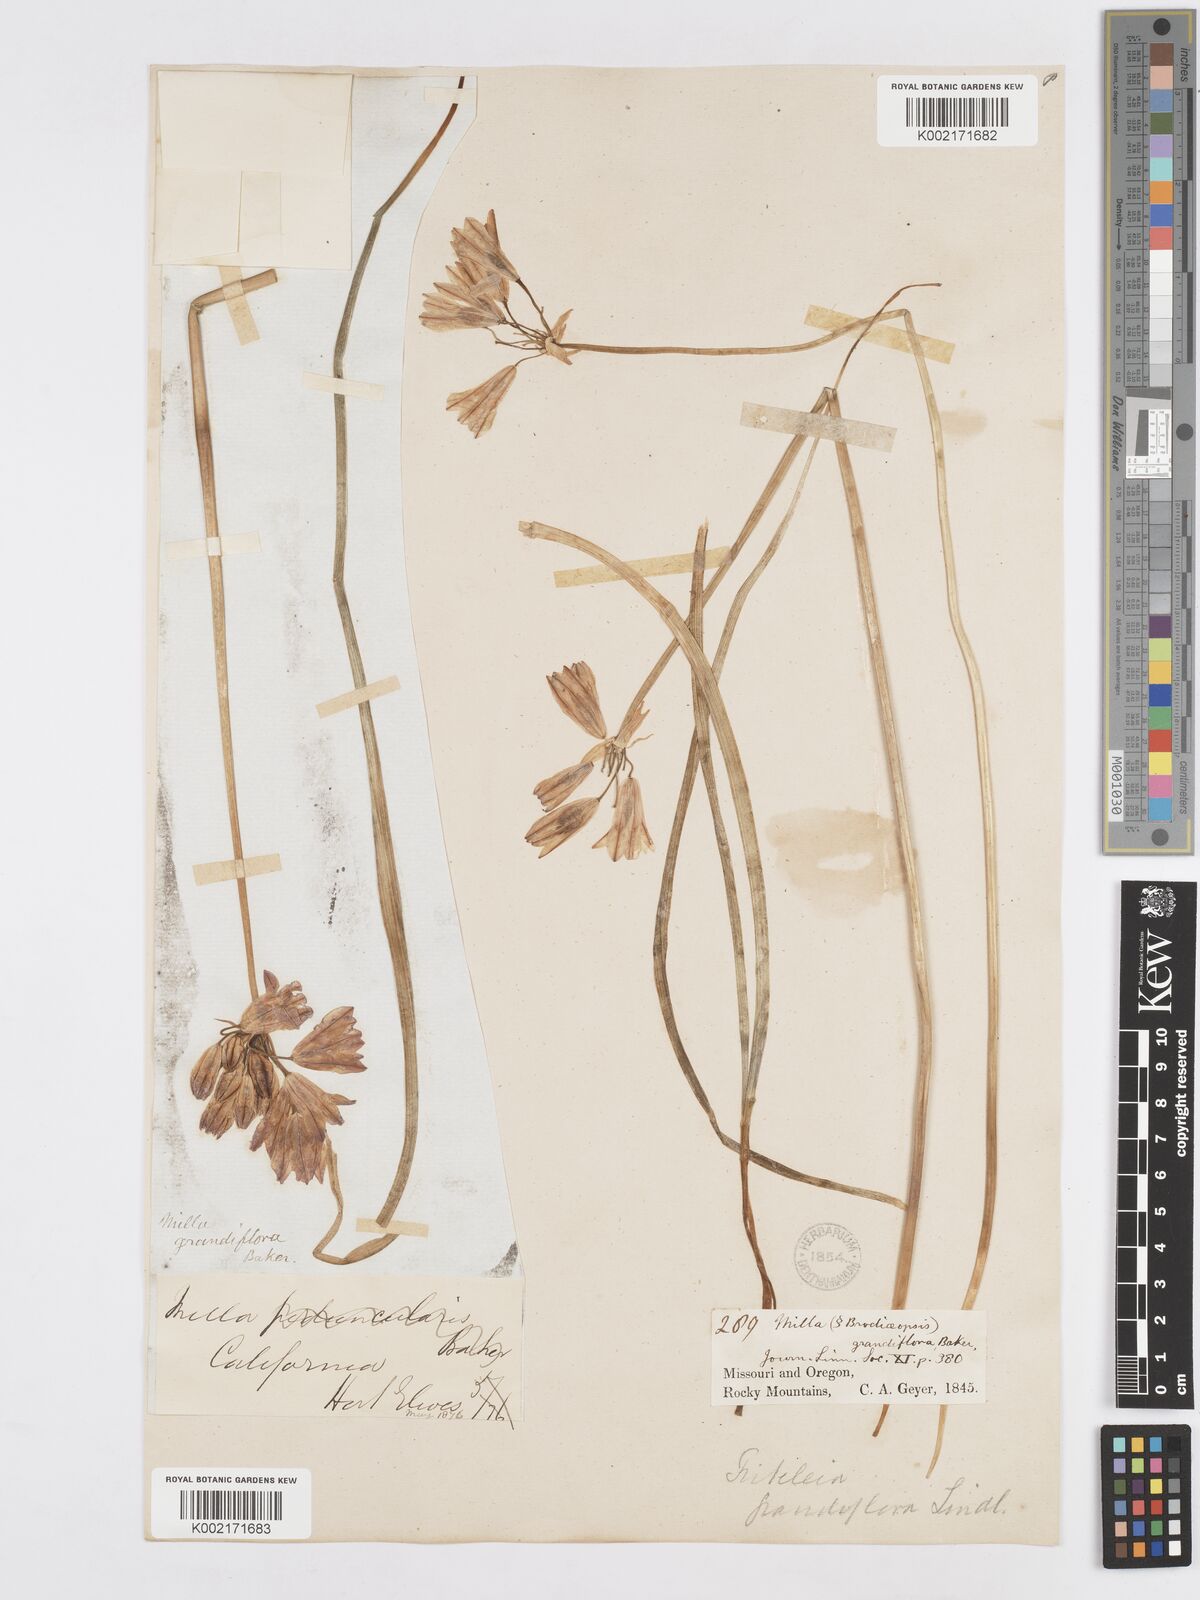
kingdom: Plantae
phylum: Tracheophyta
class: Liliopsida
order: Asparagales
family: Asparagaceae
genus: Triteleia
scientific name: Triteleia grandiflora
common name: Wild hyacinth
